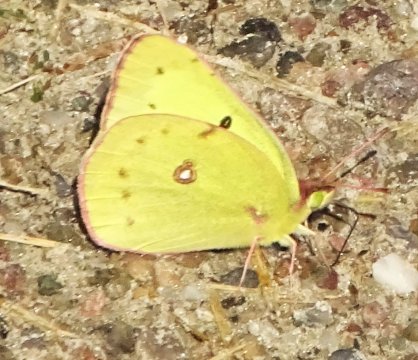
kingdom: Animalia
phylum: Arthropoda
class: Insecta
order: Lepidoptera
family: Pieridae
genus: Colias
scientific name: Colias philodice
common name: Clouded Sulphur
